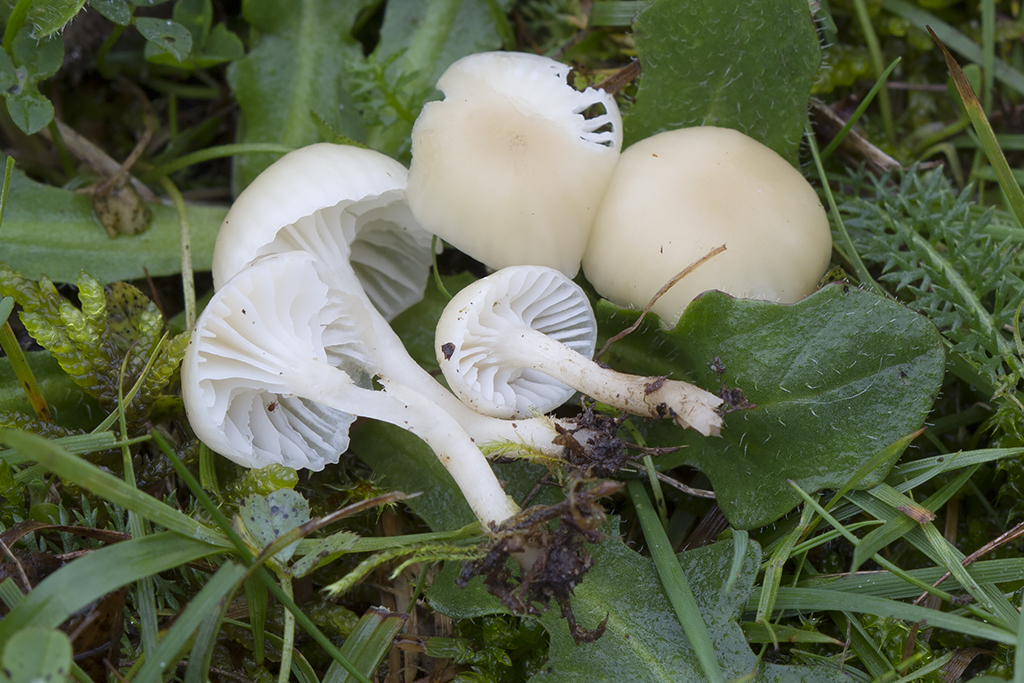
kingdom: Fungi
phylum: Basidiomycota
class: Agaricomycetes
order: Agaricales
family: Hygrophoraceae
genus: Cuphophyllus
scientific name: Cuphophyllus russocoriaceus
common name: ruslæder-vokshat
